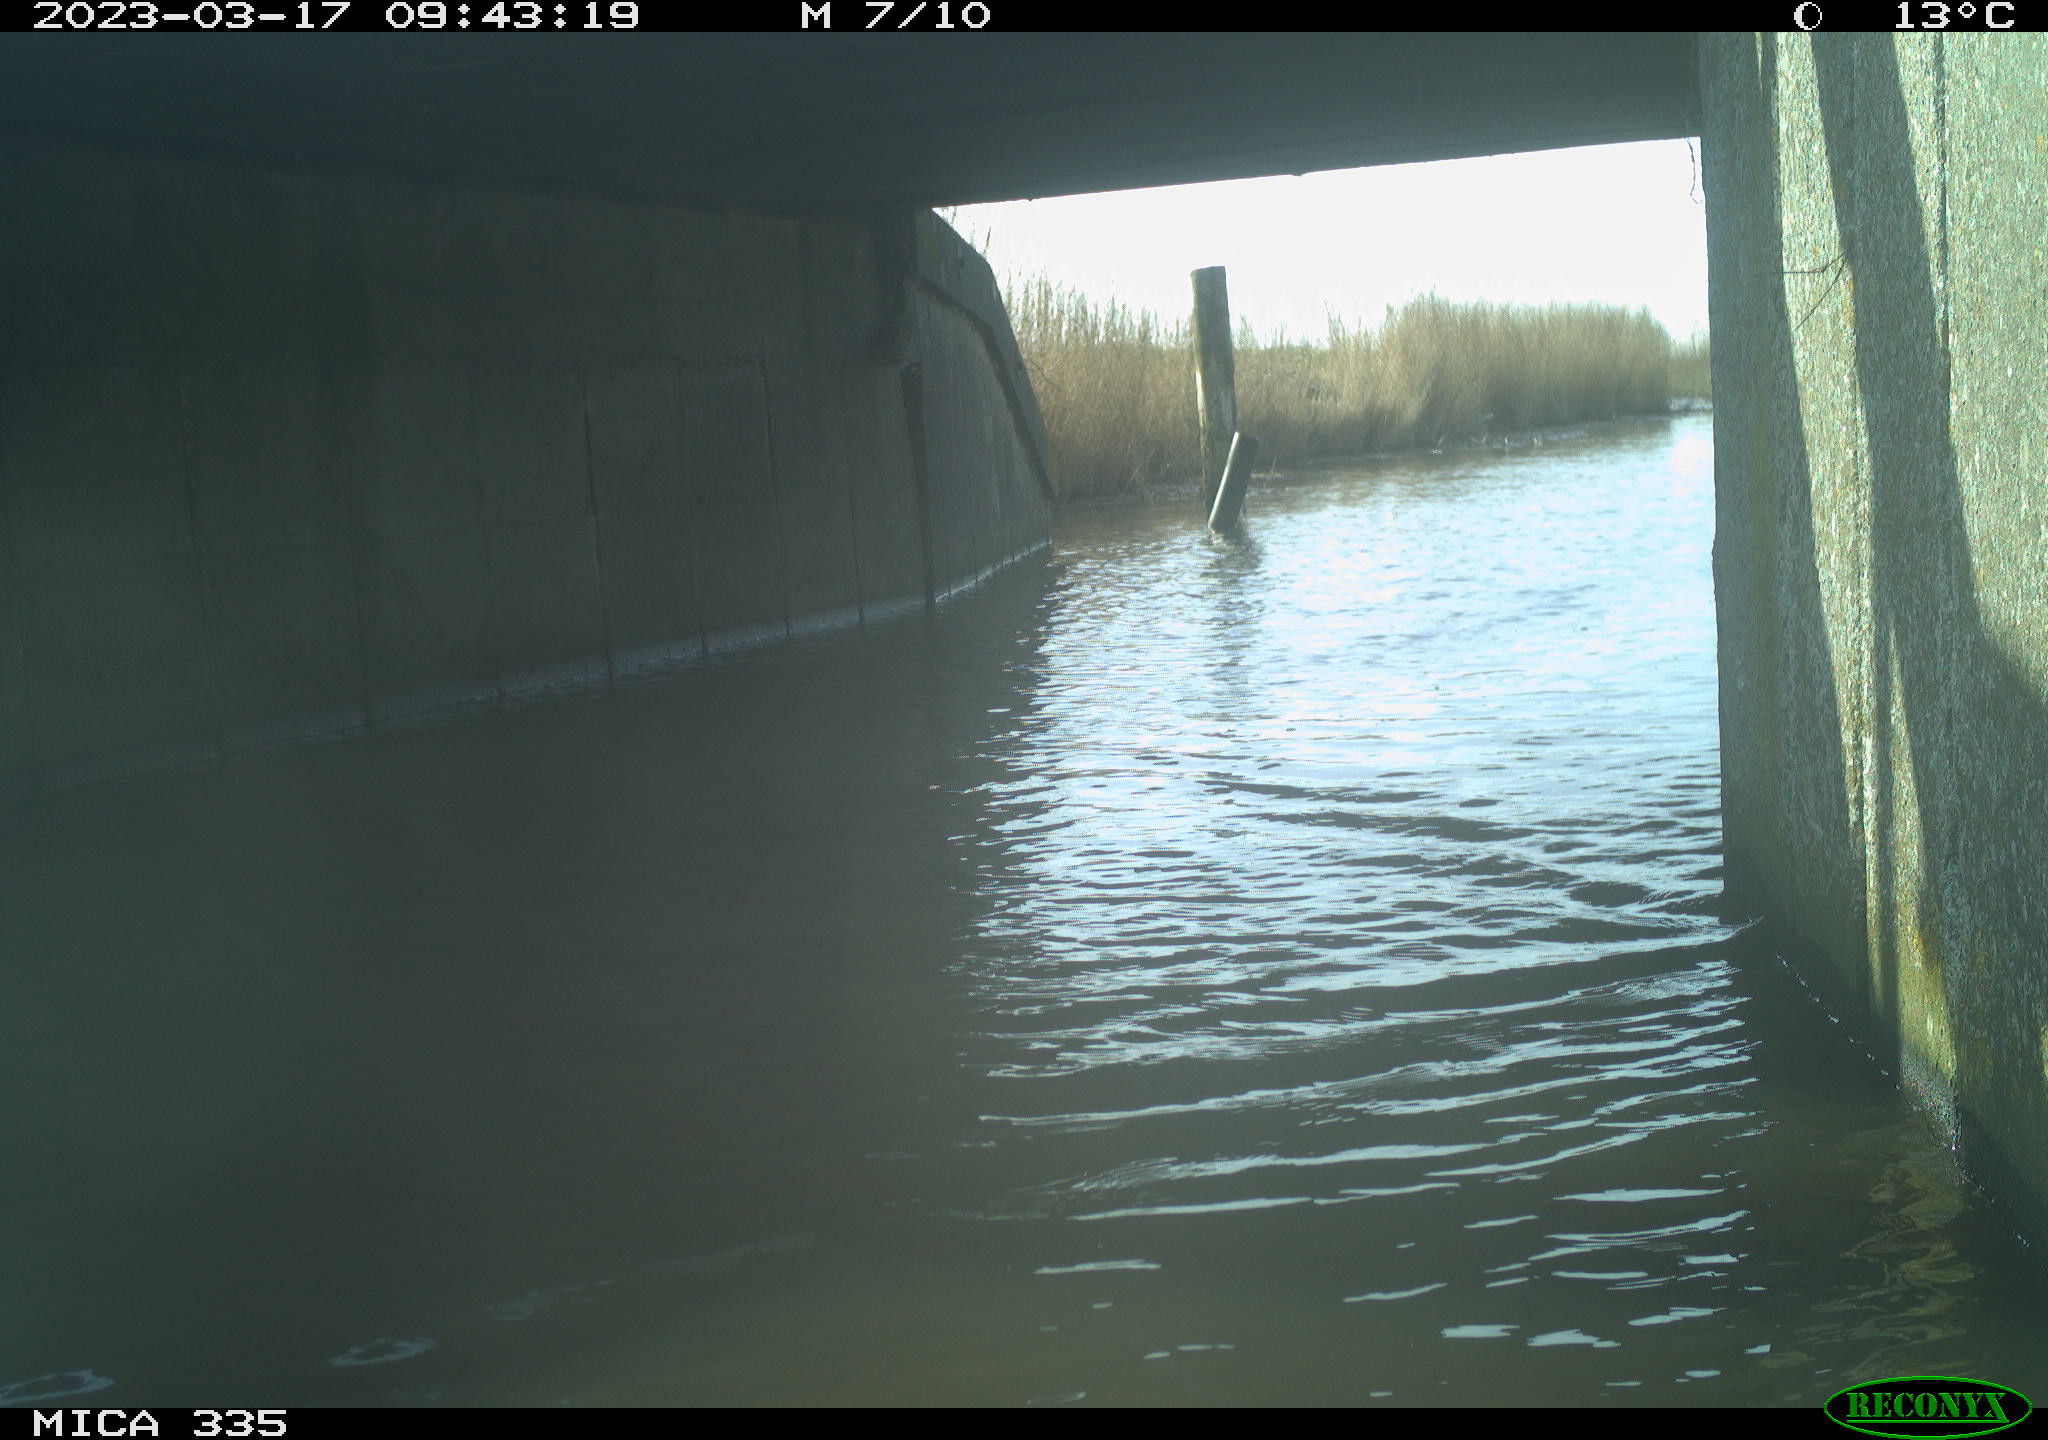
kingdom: Animalia
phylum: Chordata
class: Aves
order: Anseriformes
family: Anatidae
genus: Anas
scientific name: Anas
